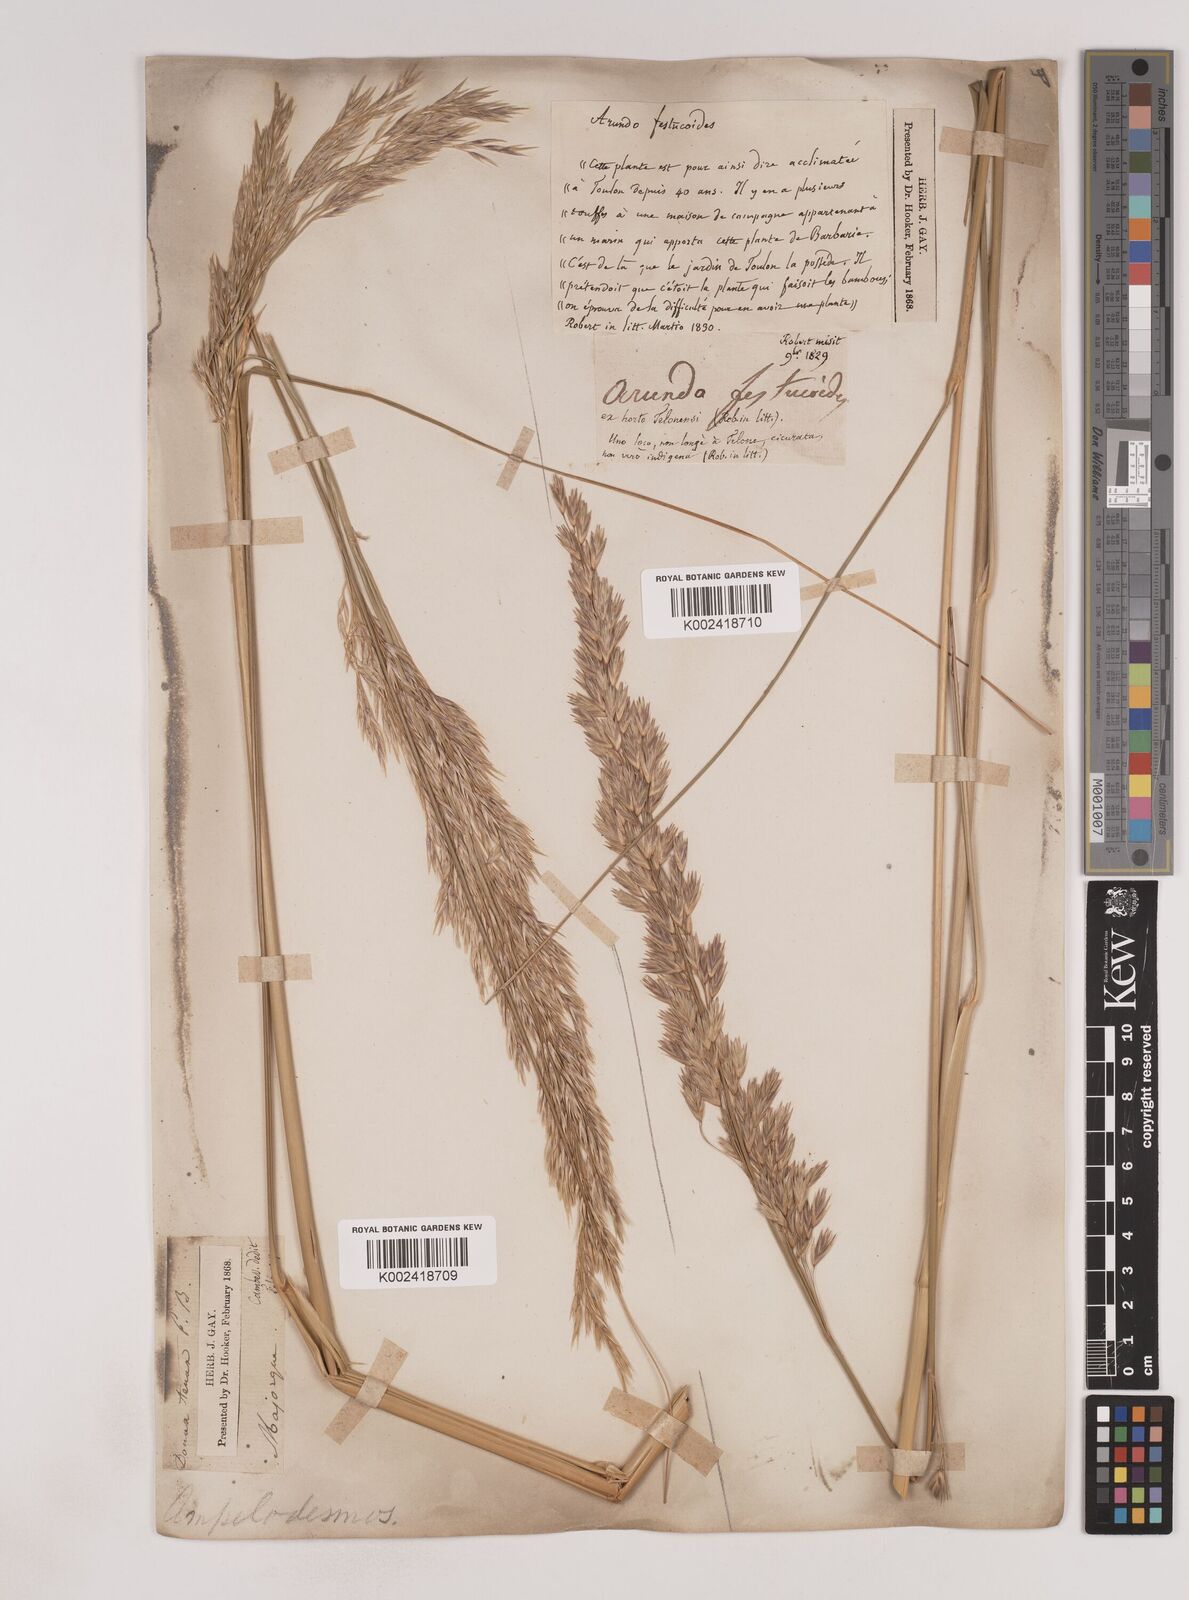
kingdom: Plantae
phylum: Tracheophyta
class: Liliopsida
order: Poales
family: Poaceae
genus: Ampelodesmos
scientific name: Ampelodesmos mauritanicus
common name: Mauritanian grass
